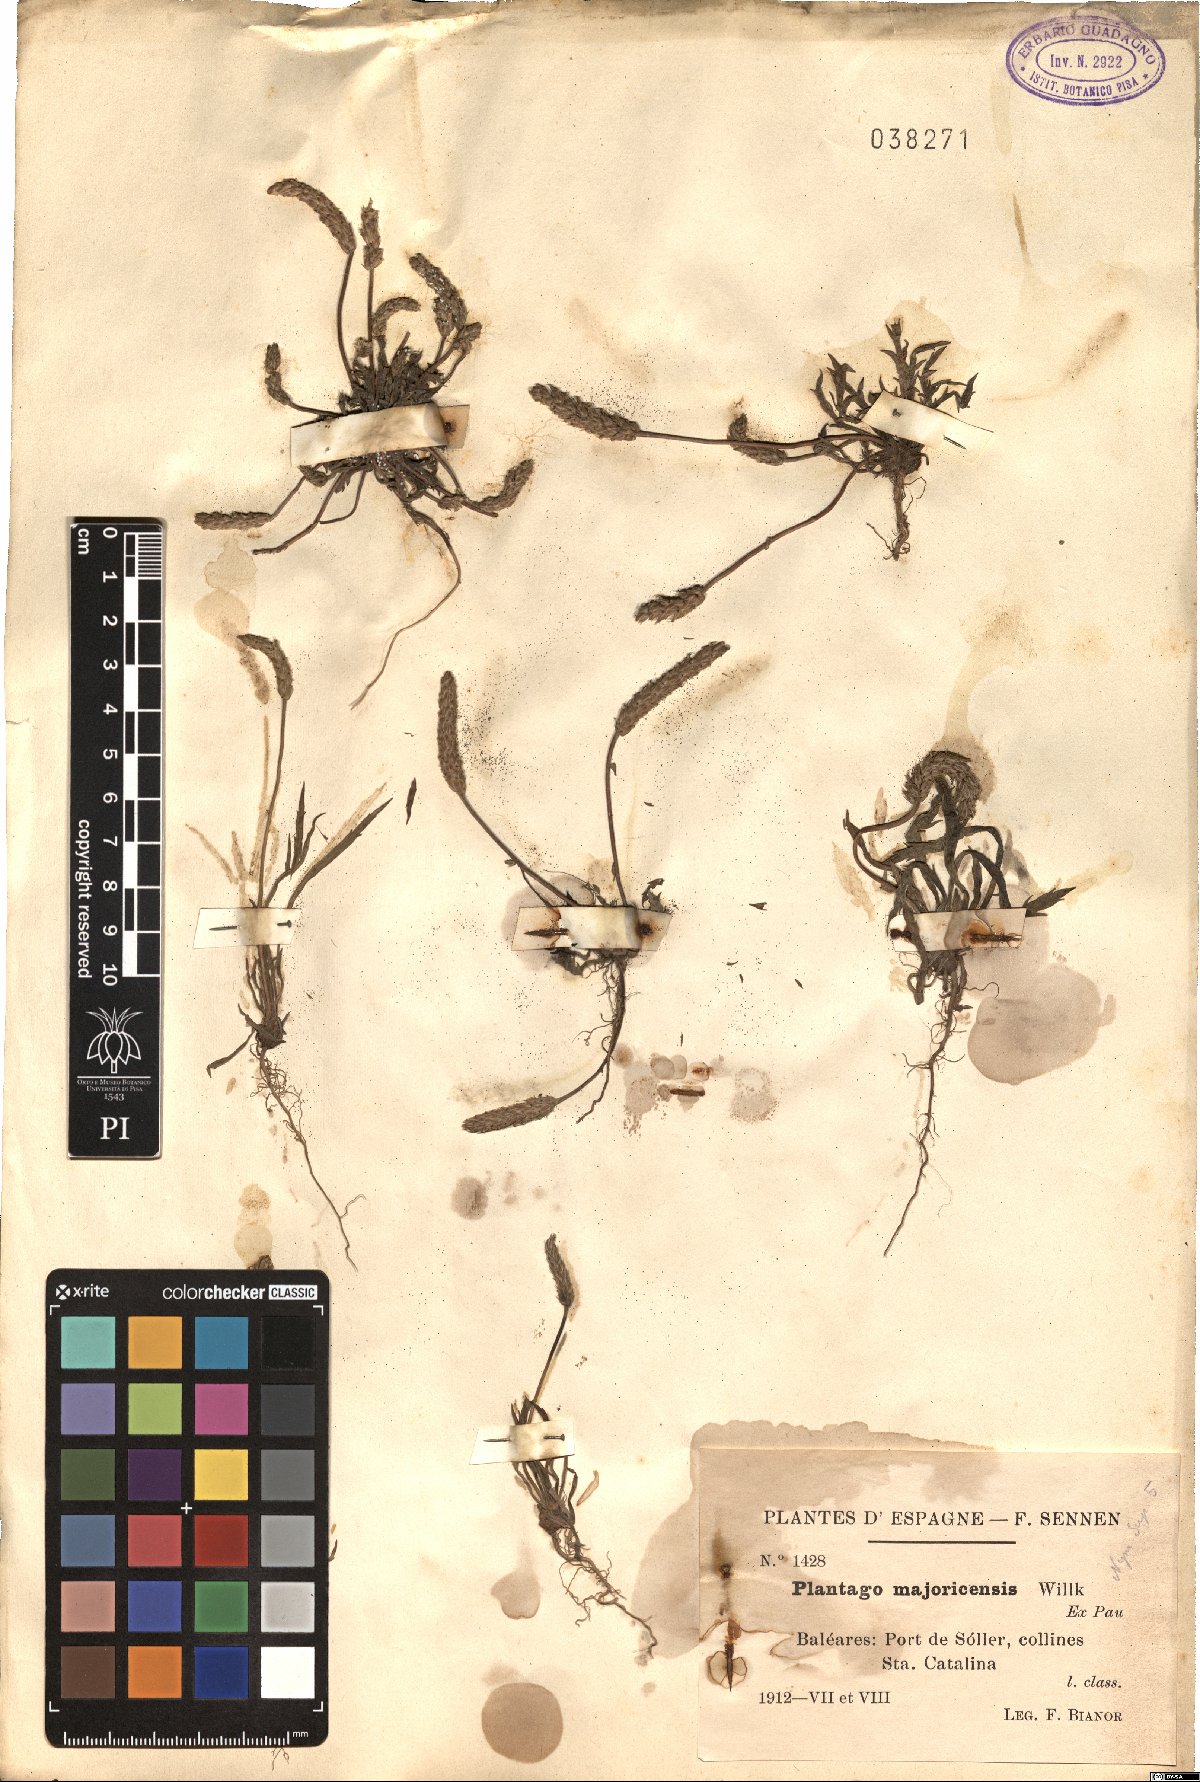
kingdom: Plantae
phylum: Tracheophyta
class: Magnoliopsida
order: Lamiales
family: Plantaginaceae
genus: Plantago
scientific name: Plantago coronopus
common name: Buck's-horn plantain
